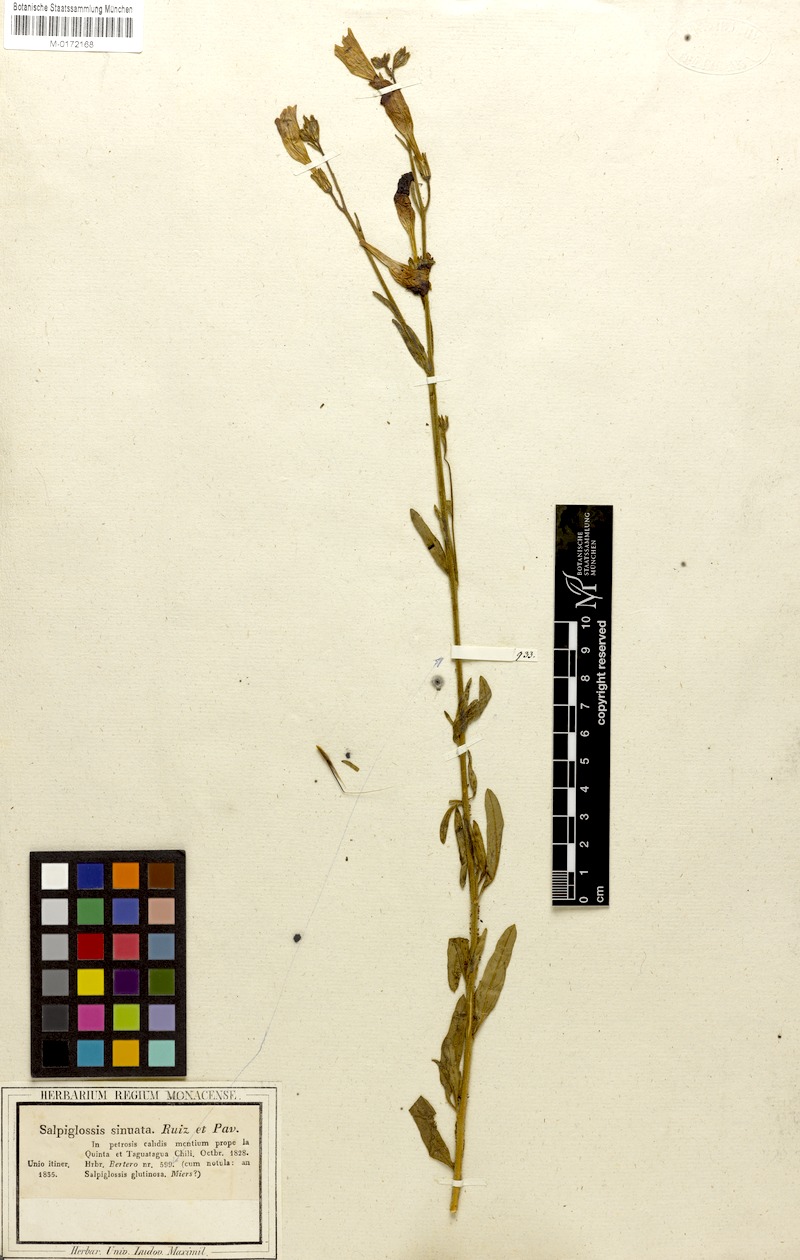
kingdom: Plantae
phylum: Tracheophyta
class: Magnoliopsida
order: Solanales
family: Solanaceae
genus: Salpiglossis
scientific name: Salpiglossis sinuata
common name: Painted-tongue
